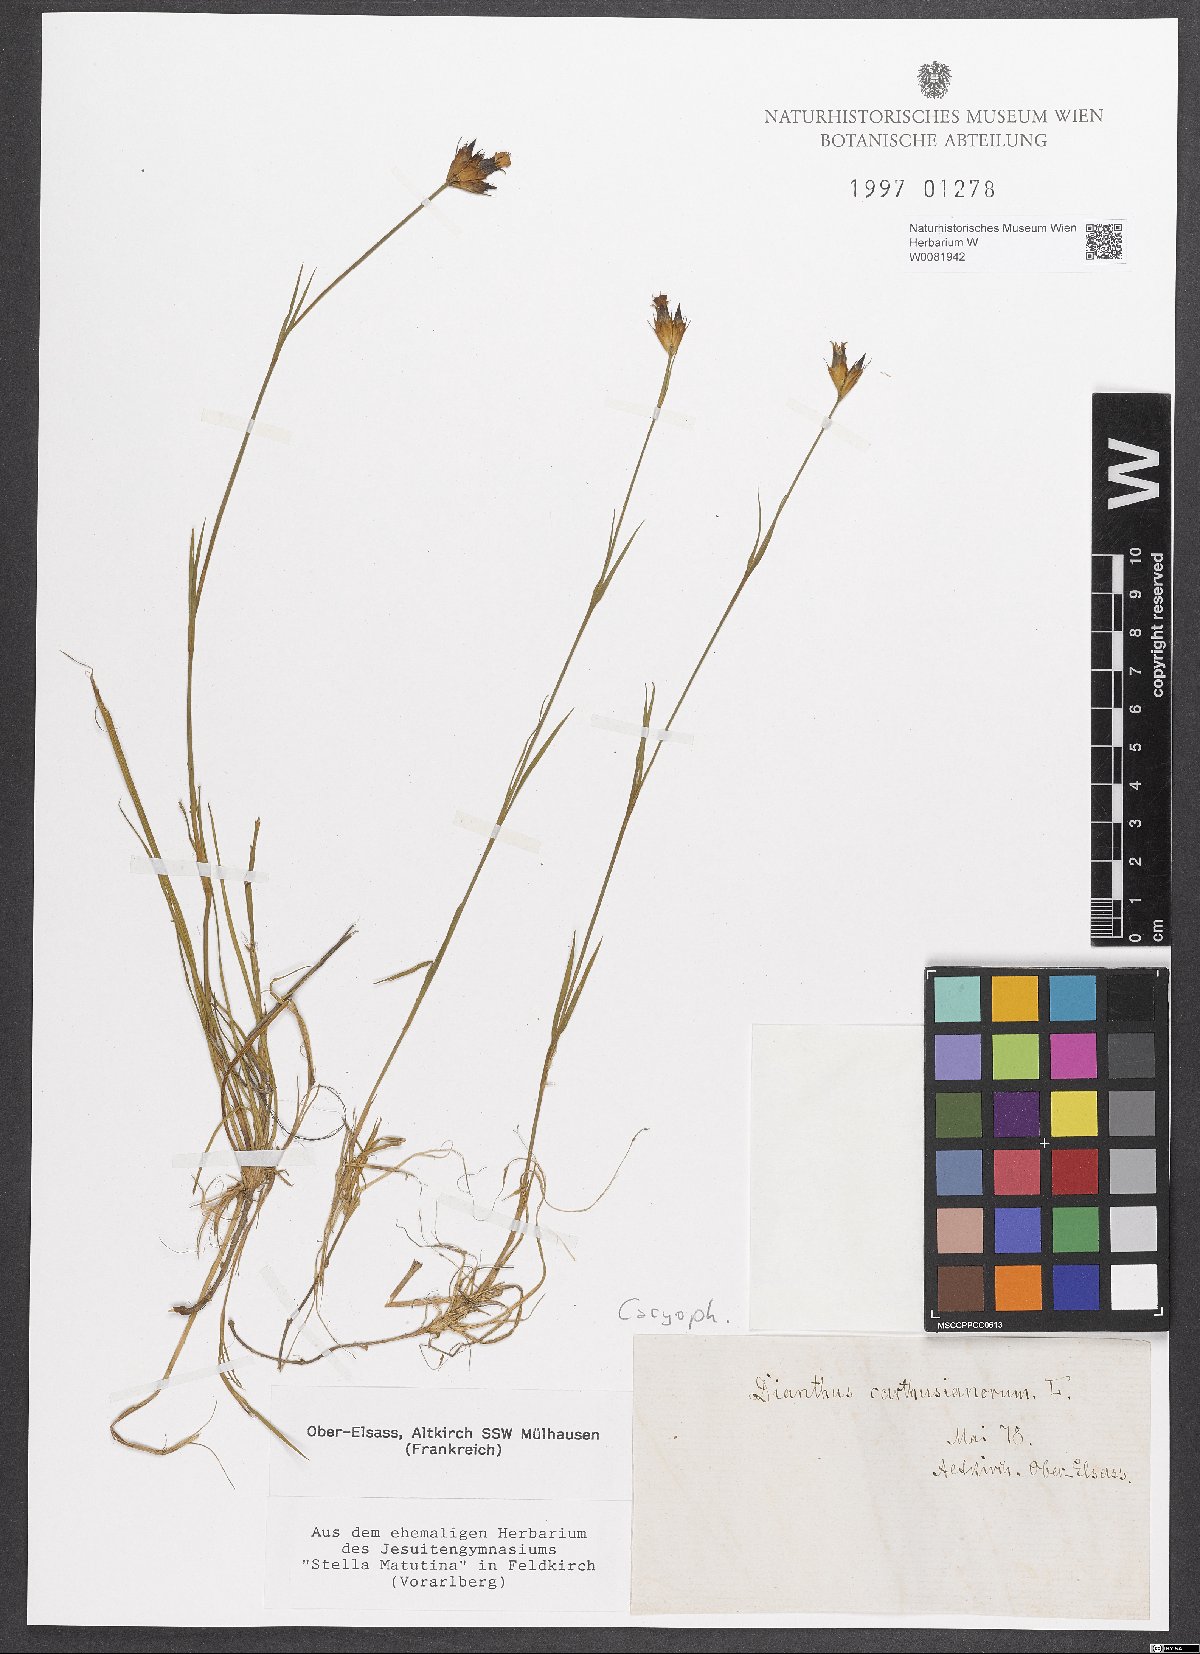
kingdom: Plantae
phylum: Tracheophyta
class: Magnoliopsida
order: Caryophyllales
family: Caryophyllaceae
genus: Dianthus
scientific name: Dianthus carthusianorum
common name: Carthusian pink
